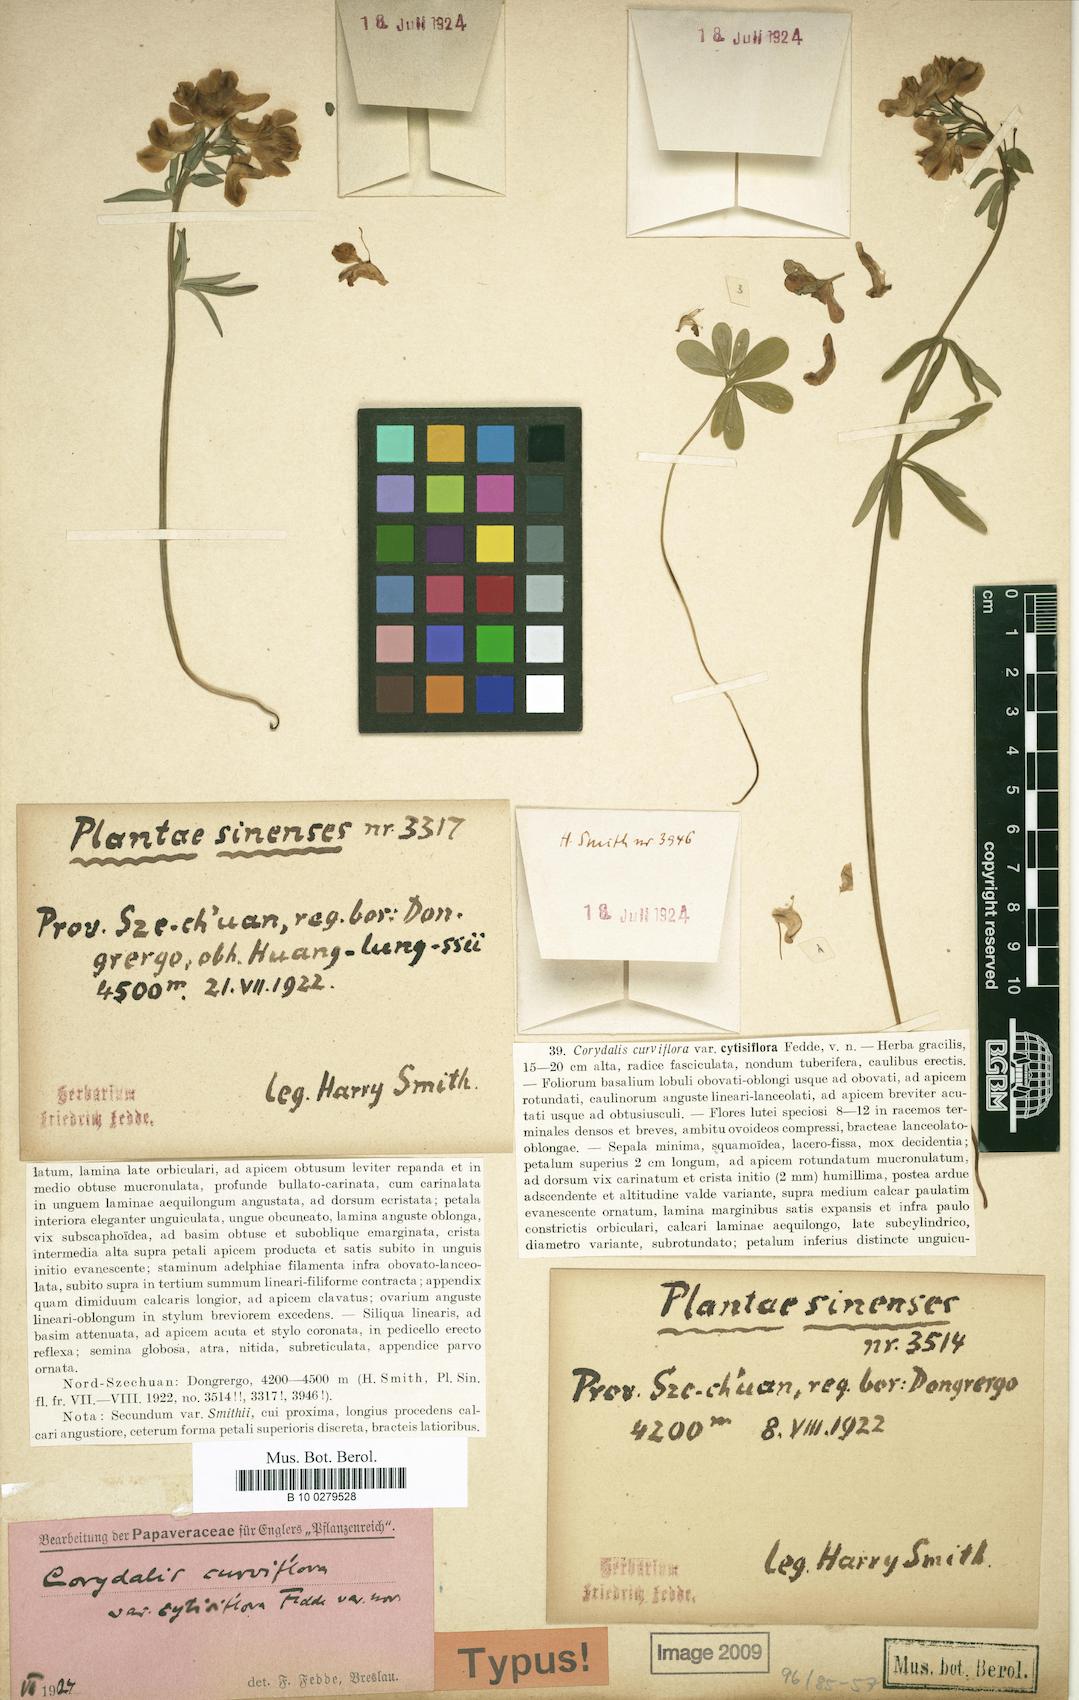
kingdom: Plantae
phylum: Tracheophyta
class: Magnoliopsida
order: Ranunculales
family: Papaveraceae
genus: Corydalis
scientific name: Corydalis cytisiflora
